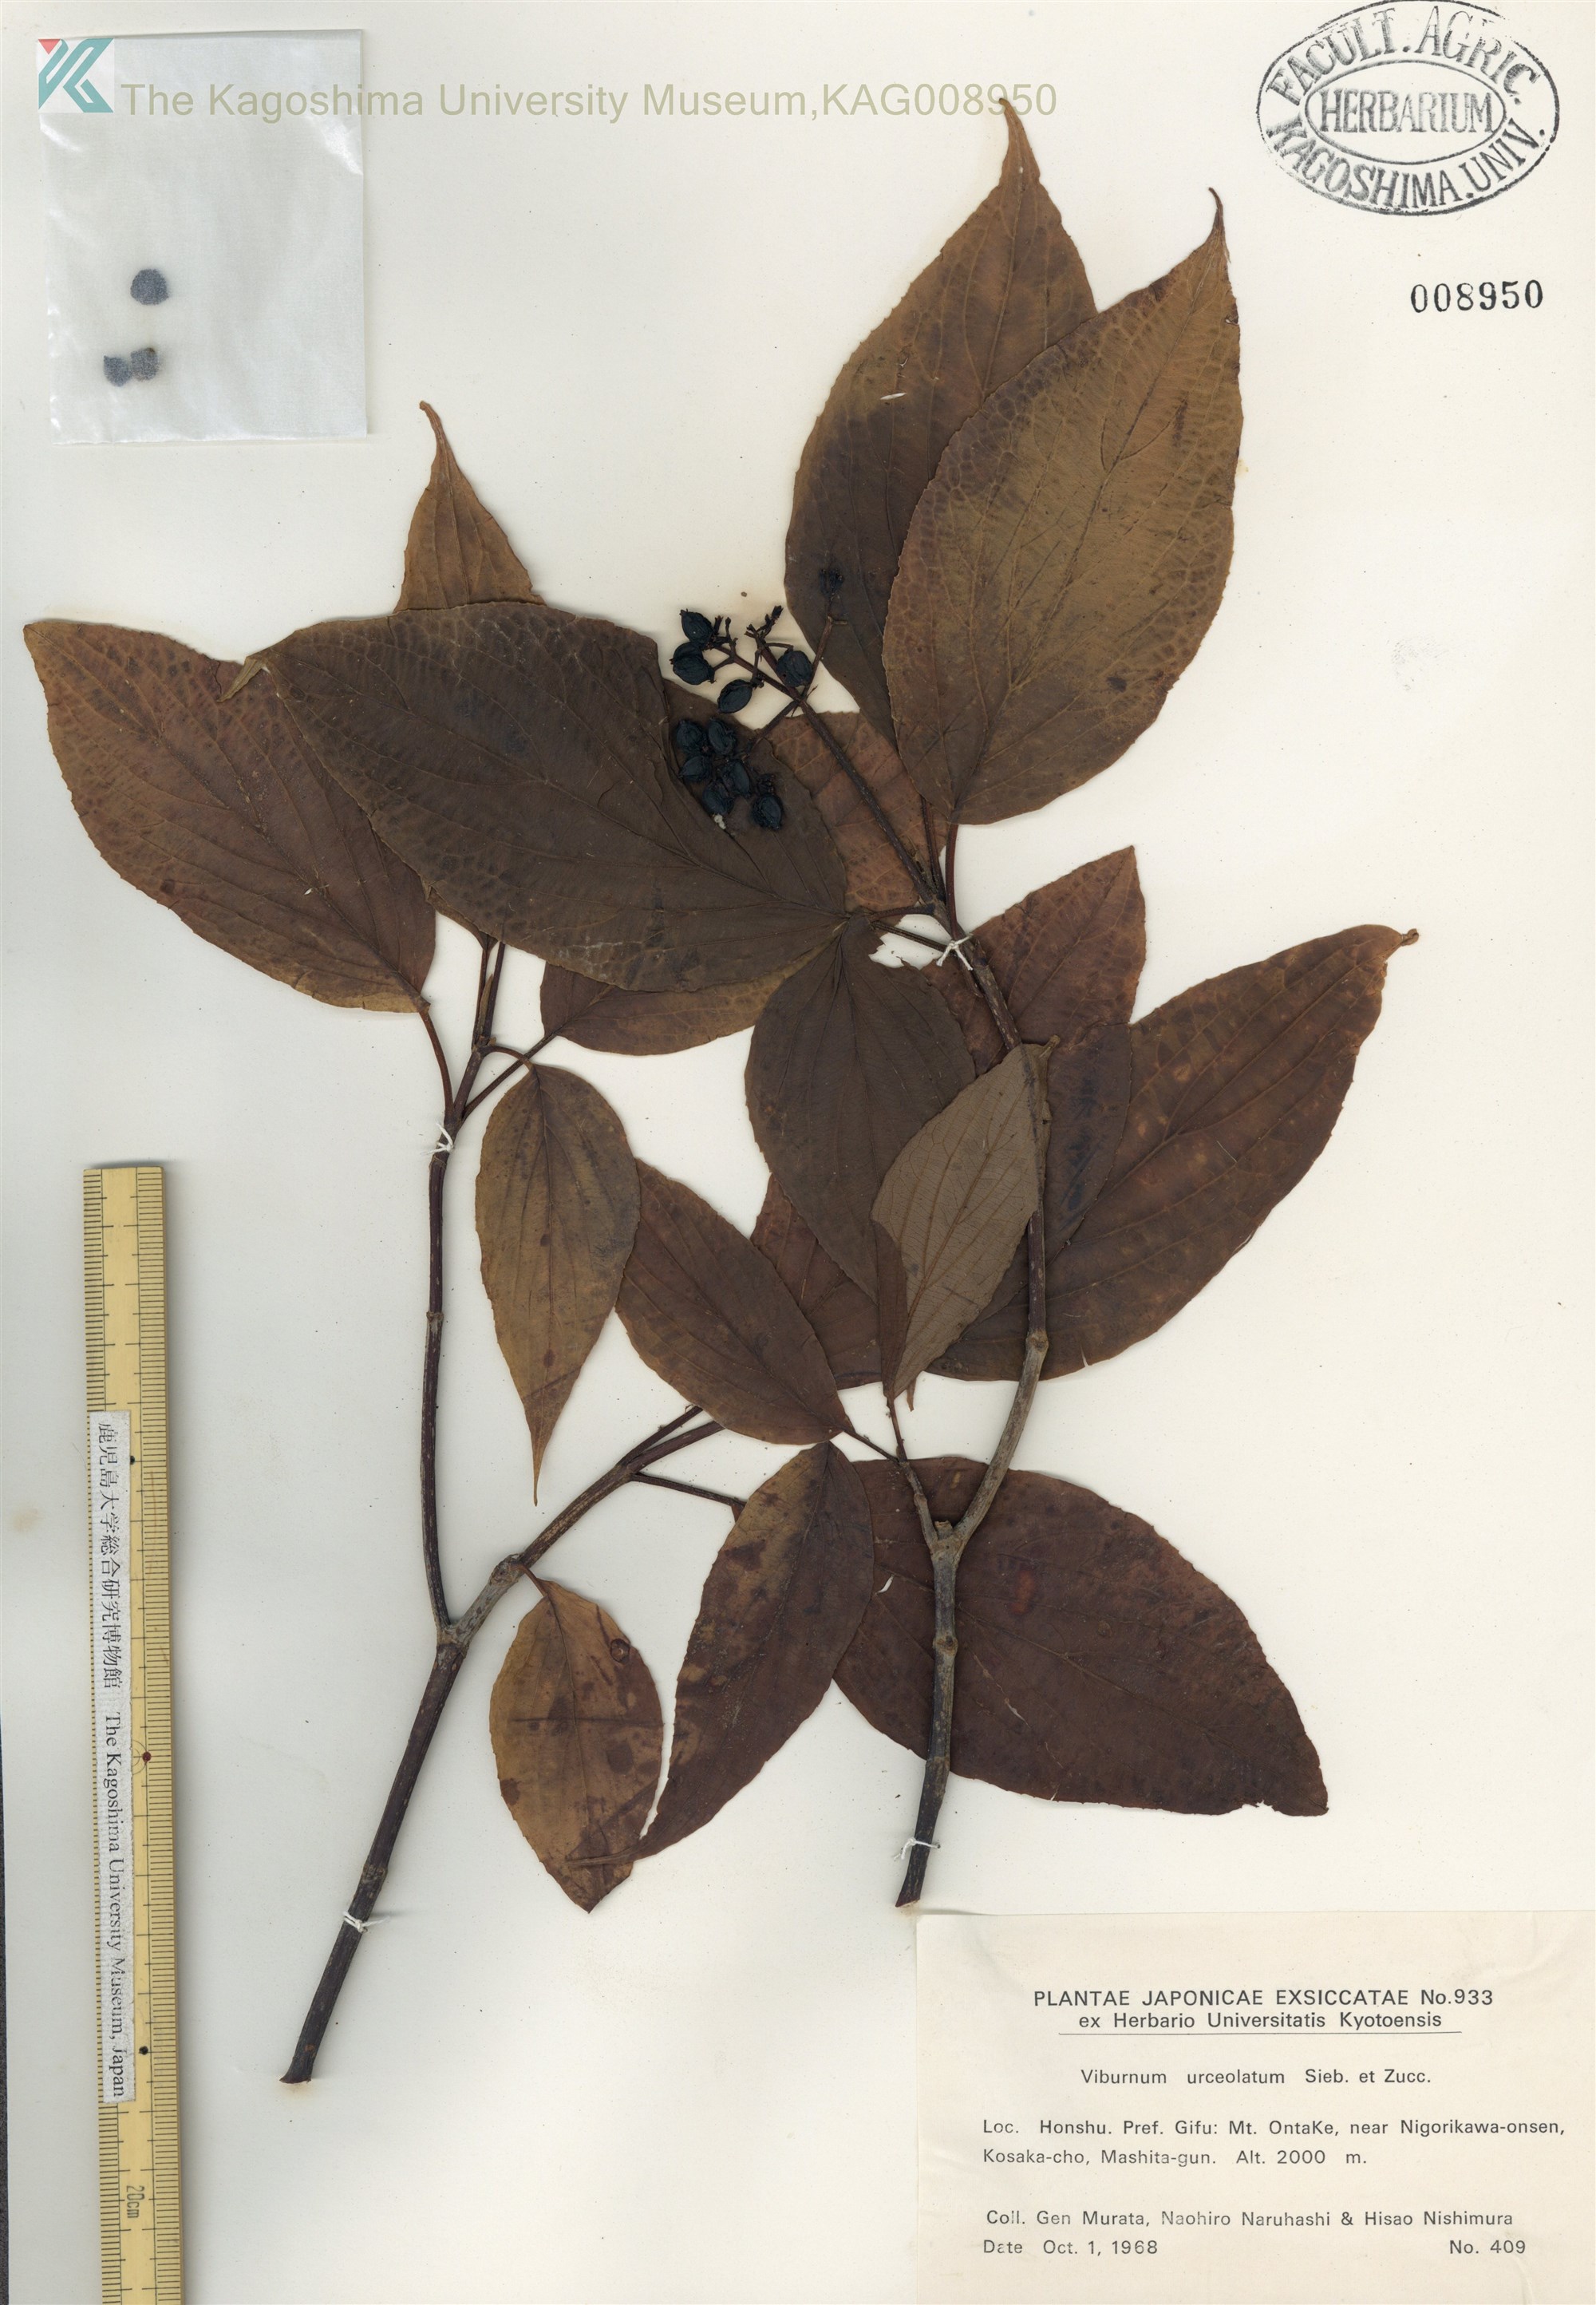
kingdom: Plantae
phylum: Tracheophyta
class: Magnoliopsida
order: Dipsacales
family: Viburnaceae
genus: Viburnum
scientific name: Viburnum urceolatum
